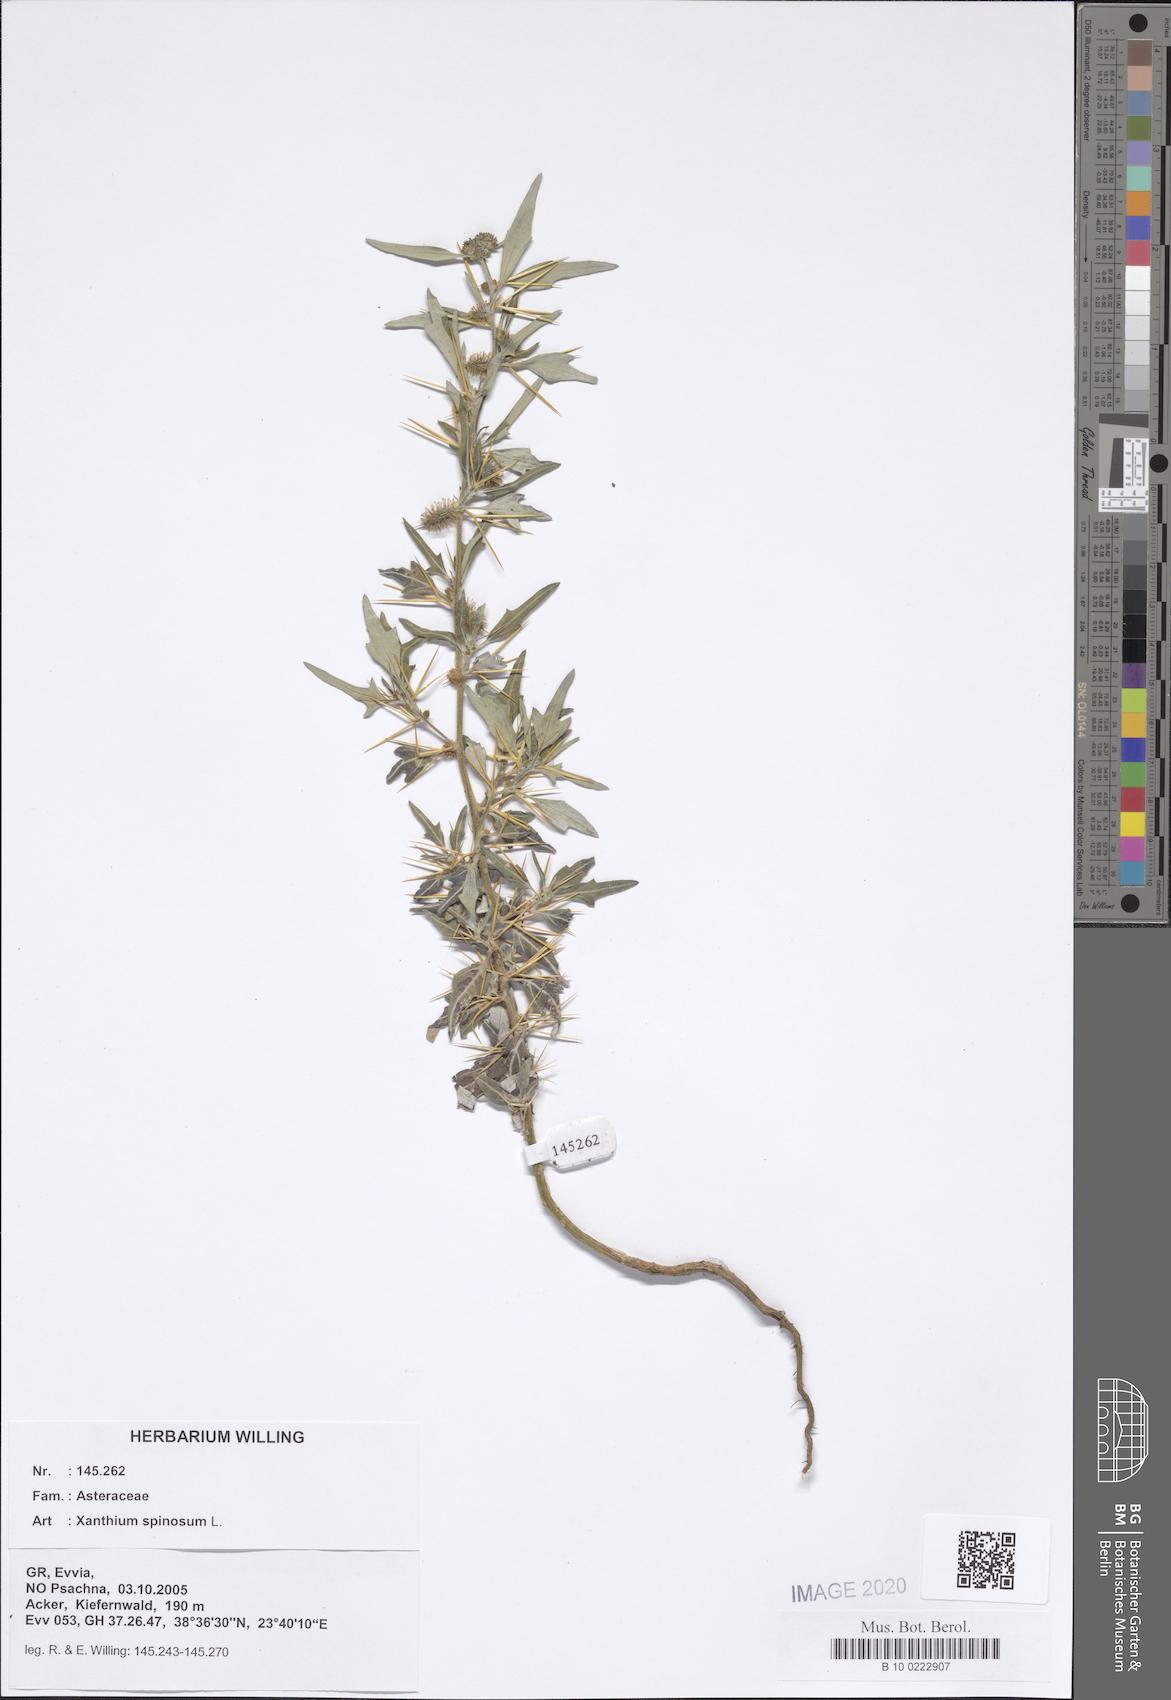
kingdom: Plantae
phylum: Tracheophyta
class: Magnoliopsida
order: Asterales
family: Asteraceae
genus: Xanthium
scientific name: Xanthium spinosum
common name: Spiny cocklebur
